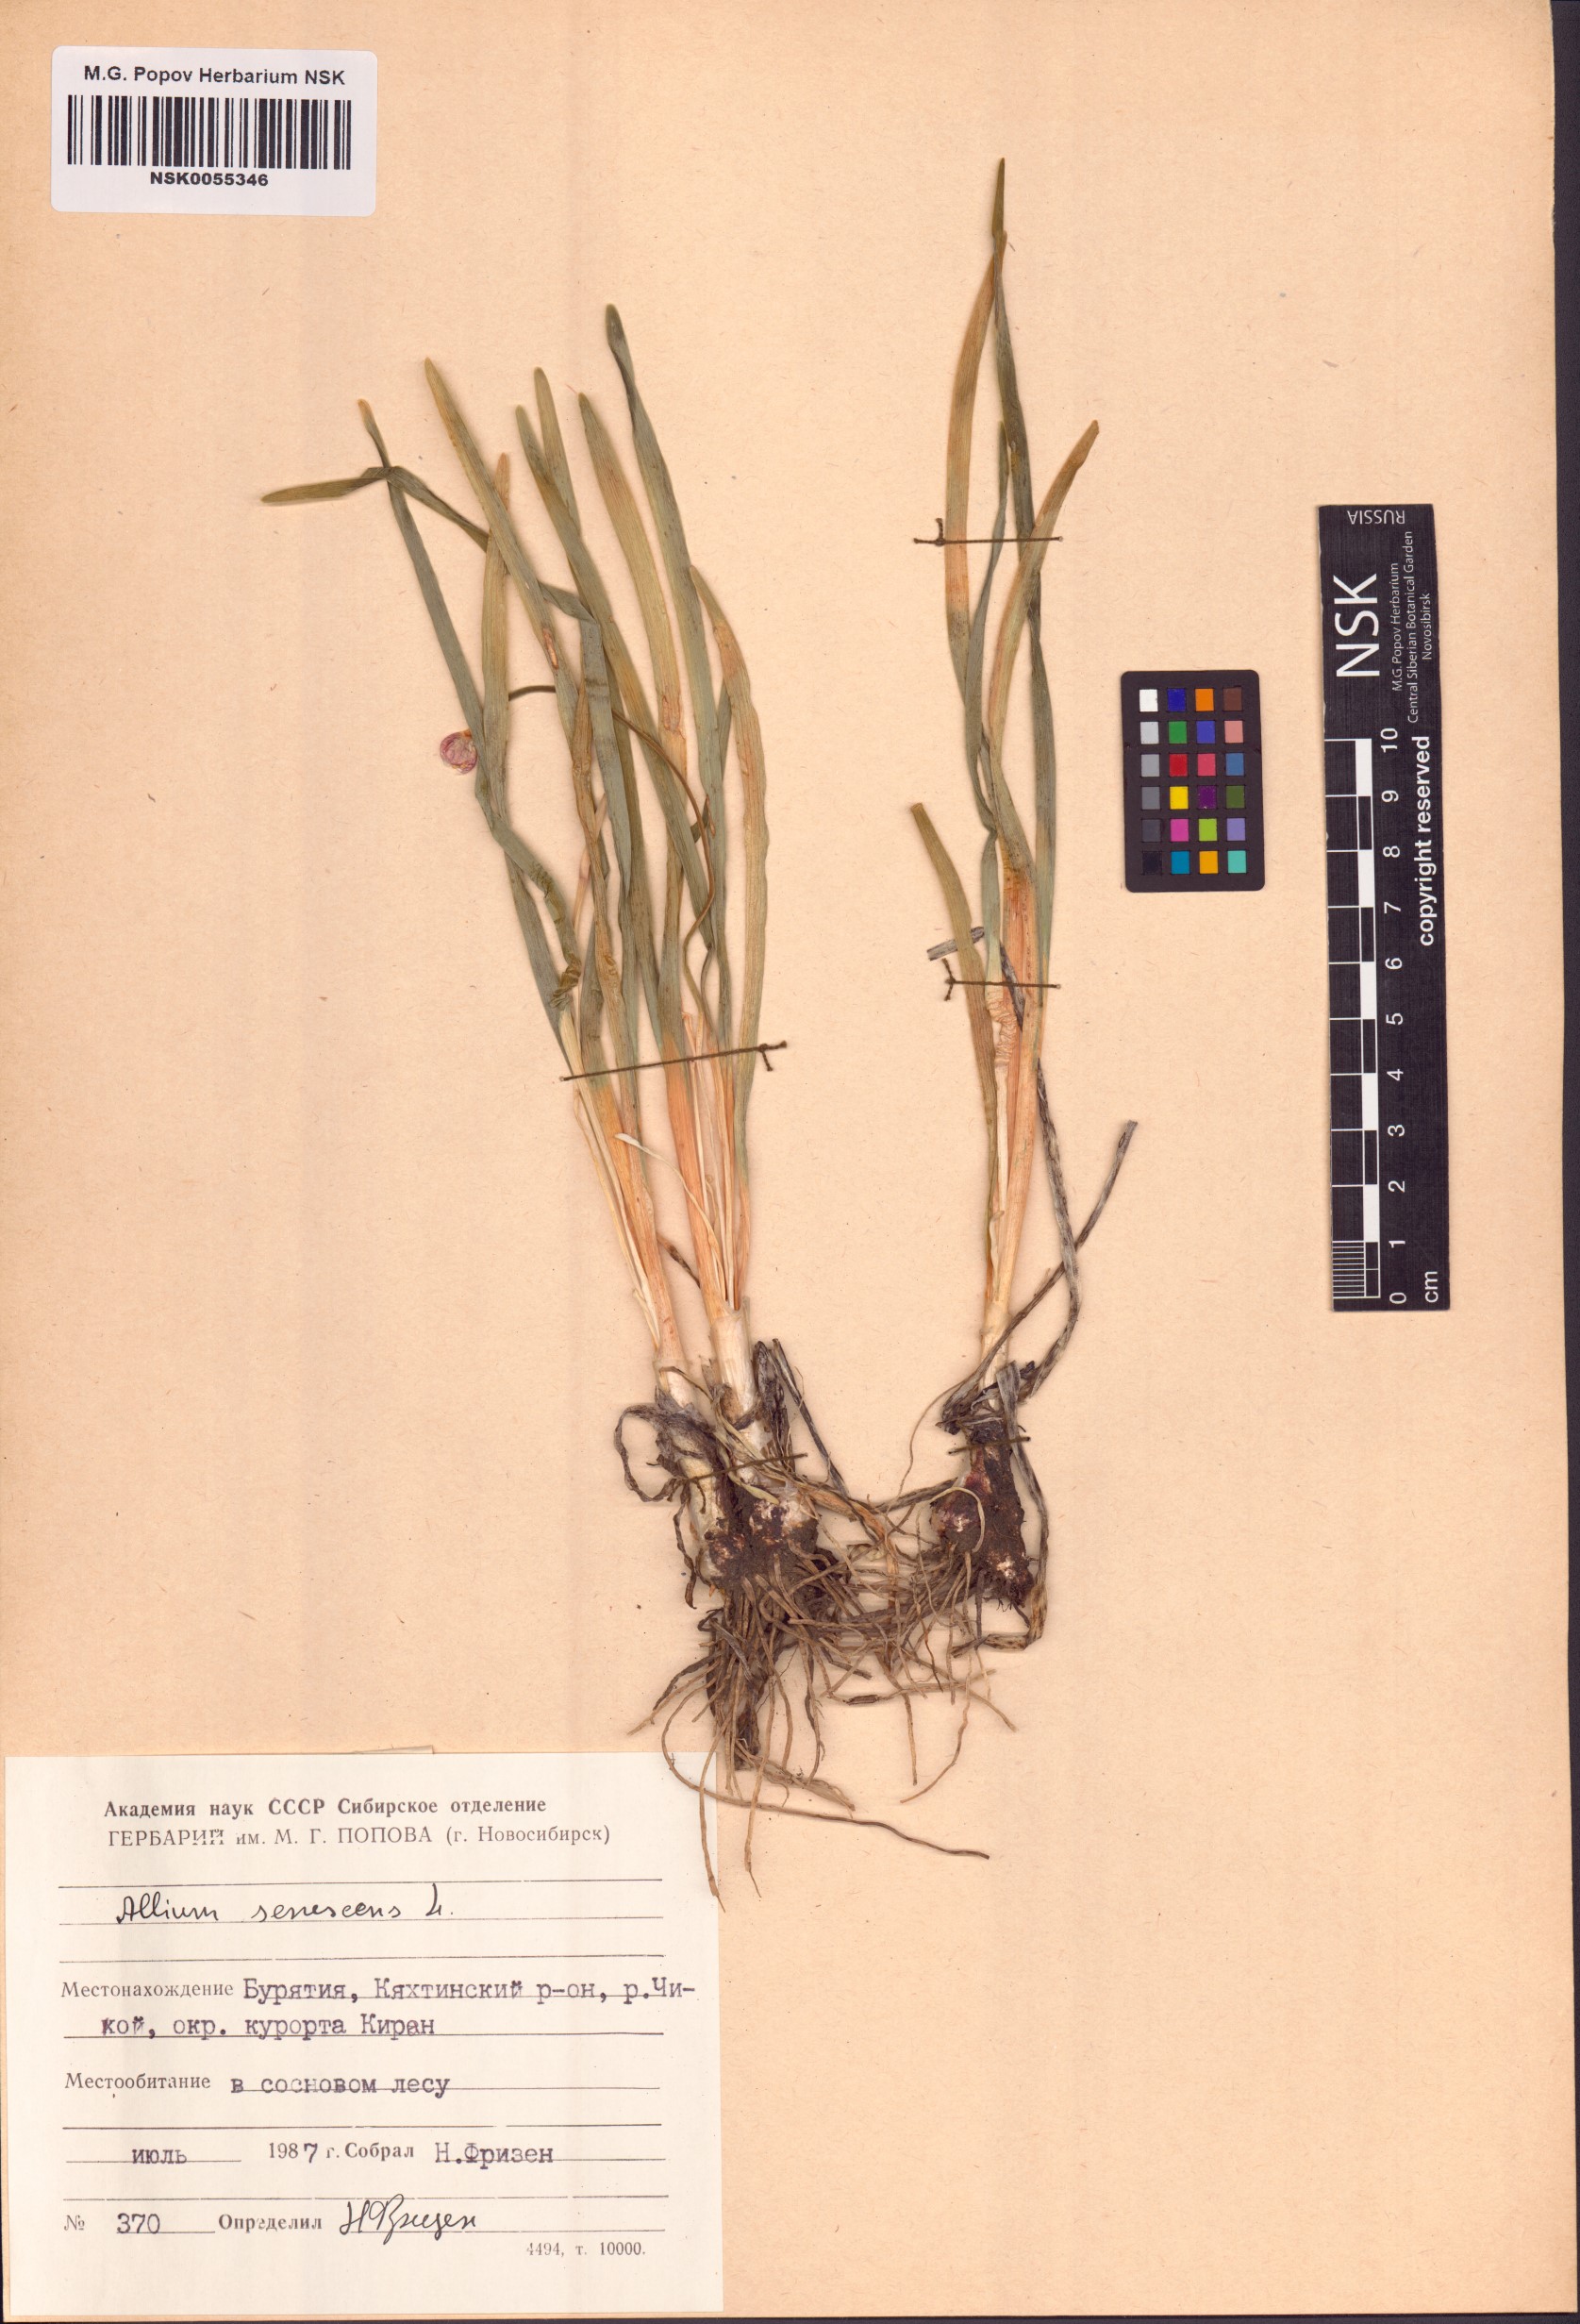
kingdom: Plantae
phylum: Tracheophyta
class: Liliopsida
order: Asparagales
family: Amaryllidaceae
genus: Allium
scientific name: Allium senescens
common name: German garlic
